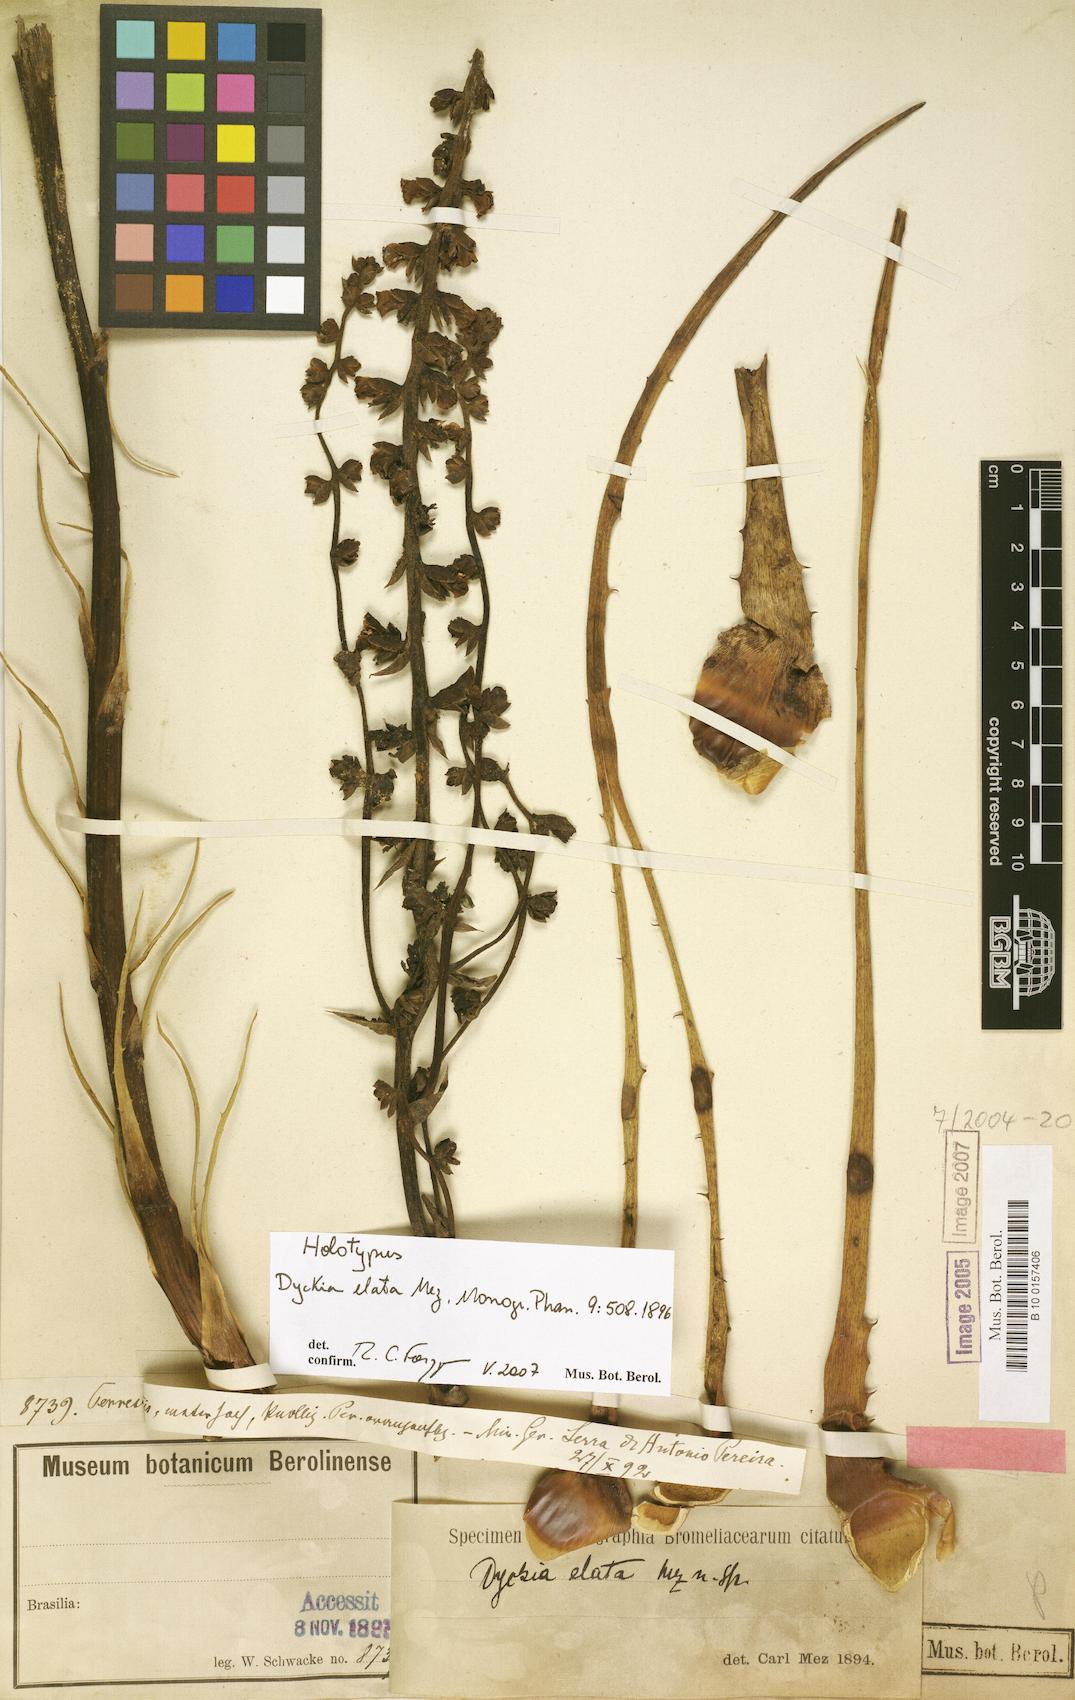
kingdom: Plantae
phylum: Tracheophyta
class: Liliopsida
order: Poales
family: Bromeliaceae
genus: Dyckia
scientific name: Dyckia elata
